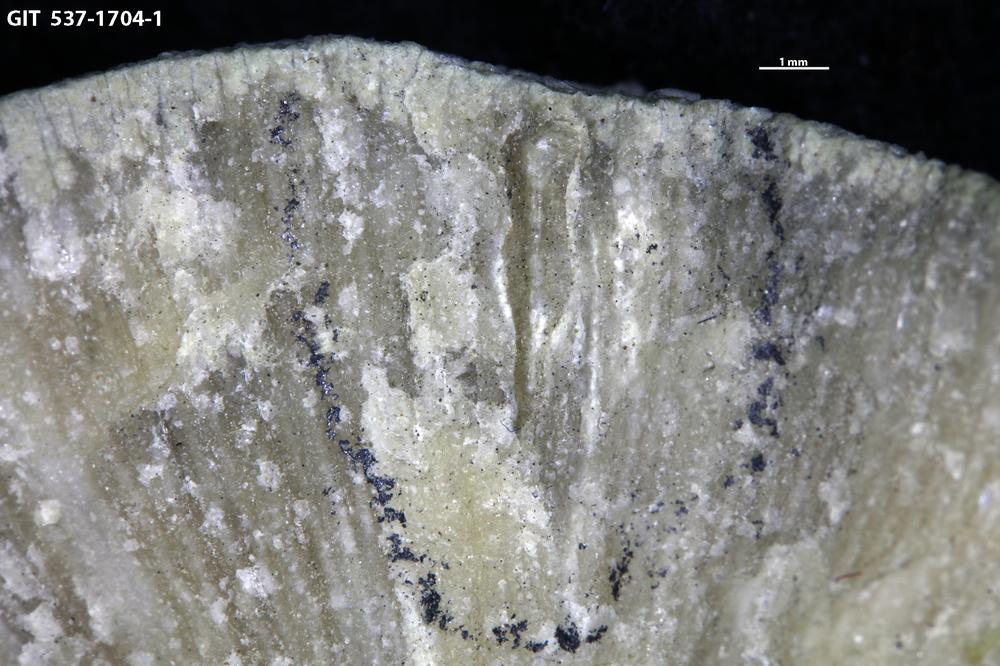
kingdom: Animalia
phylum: Cnidaria
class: Scyphozoa
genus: Climacoconus
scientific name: Climacoconus
